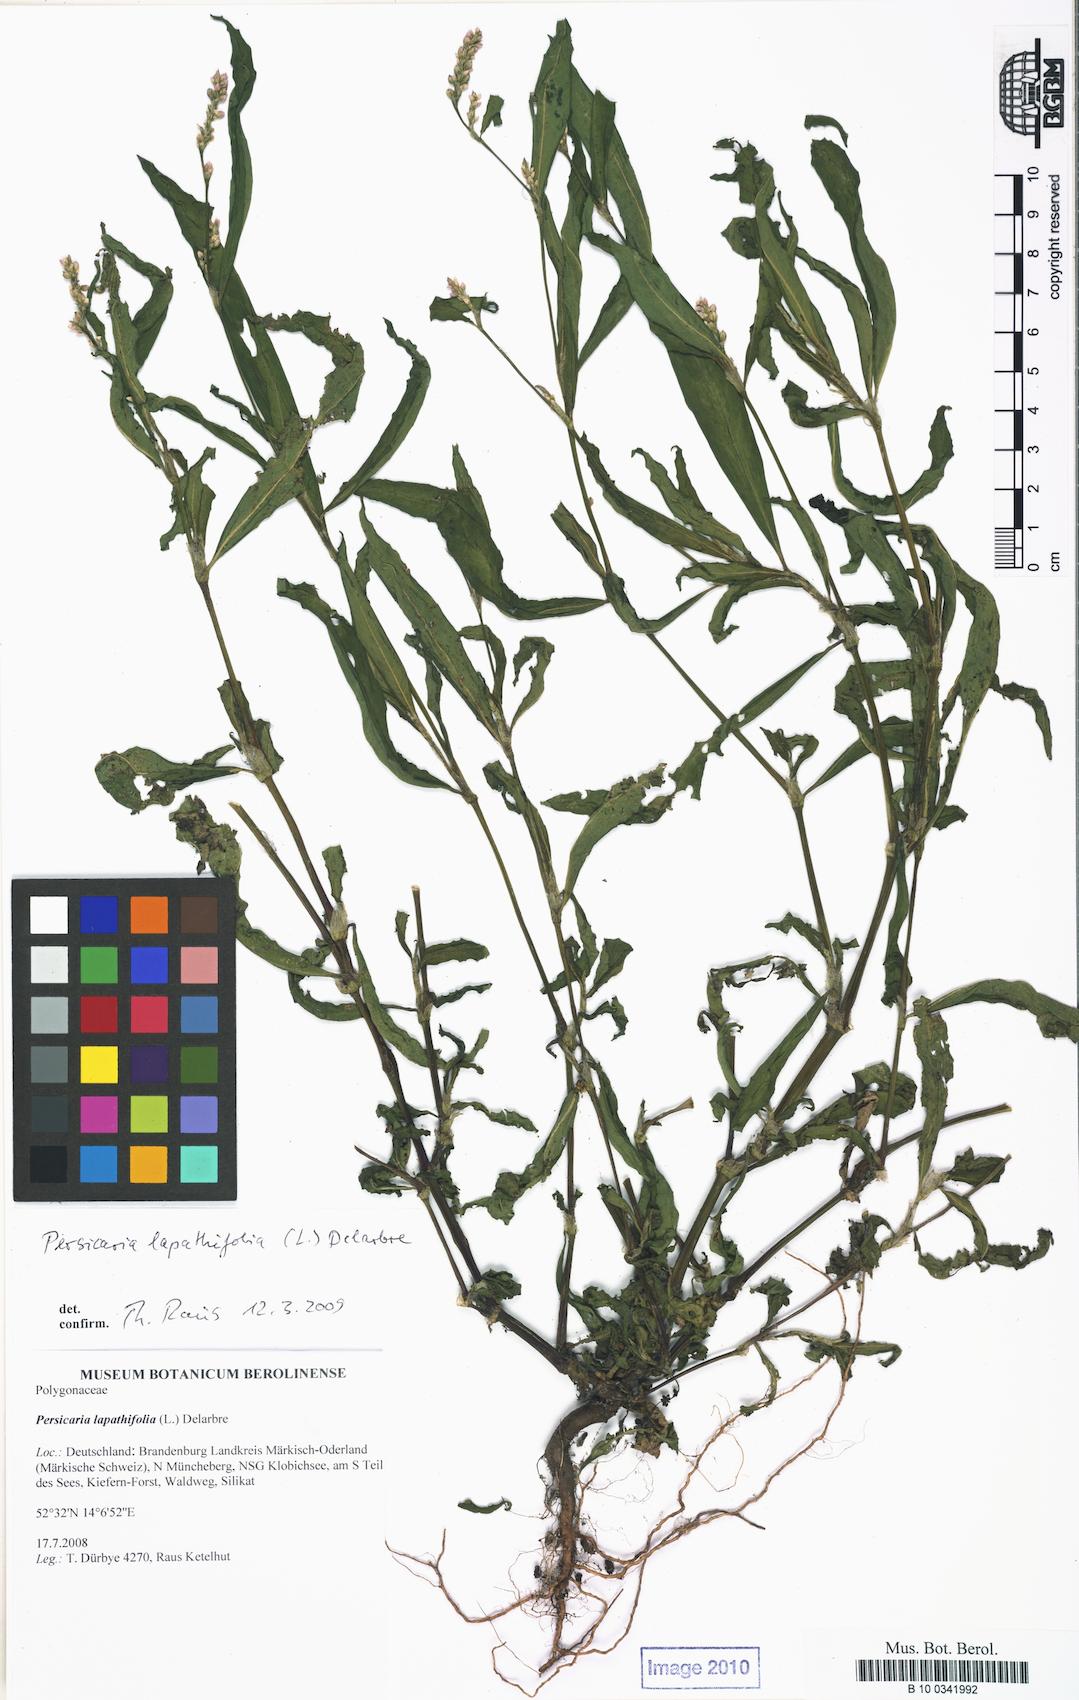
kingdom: Plantae
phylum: Tracheophyta
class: Magnoliopsida
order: Caryophyllales
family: Polygonaceae
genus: Persicaria
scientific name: Persicaria lapathifolia
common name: Curlytop knotweed
